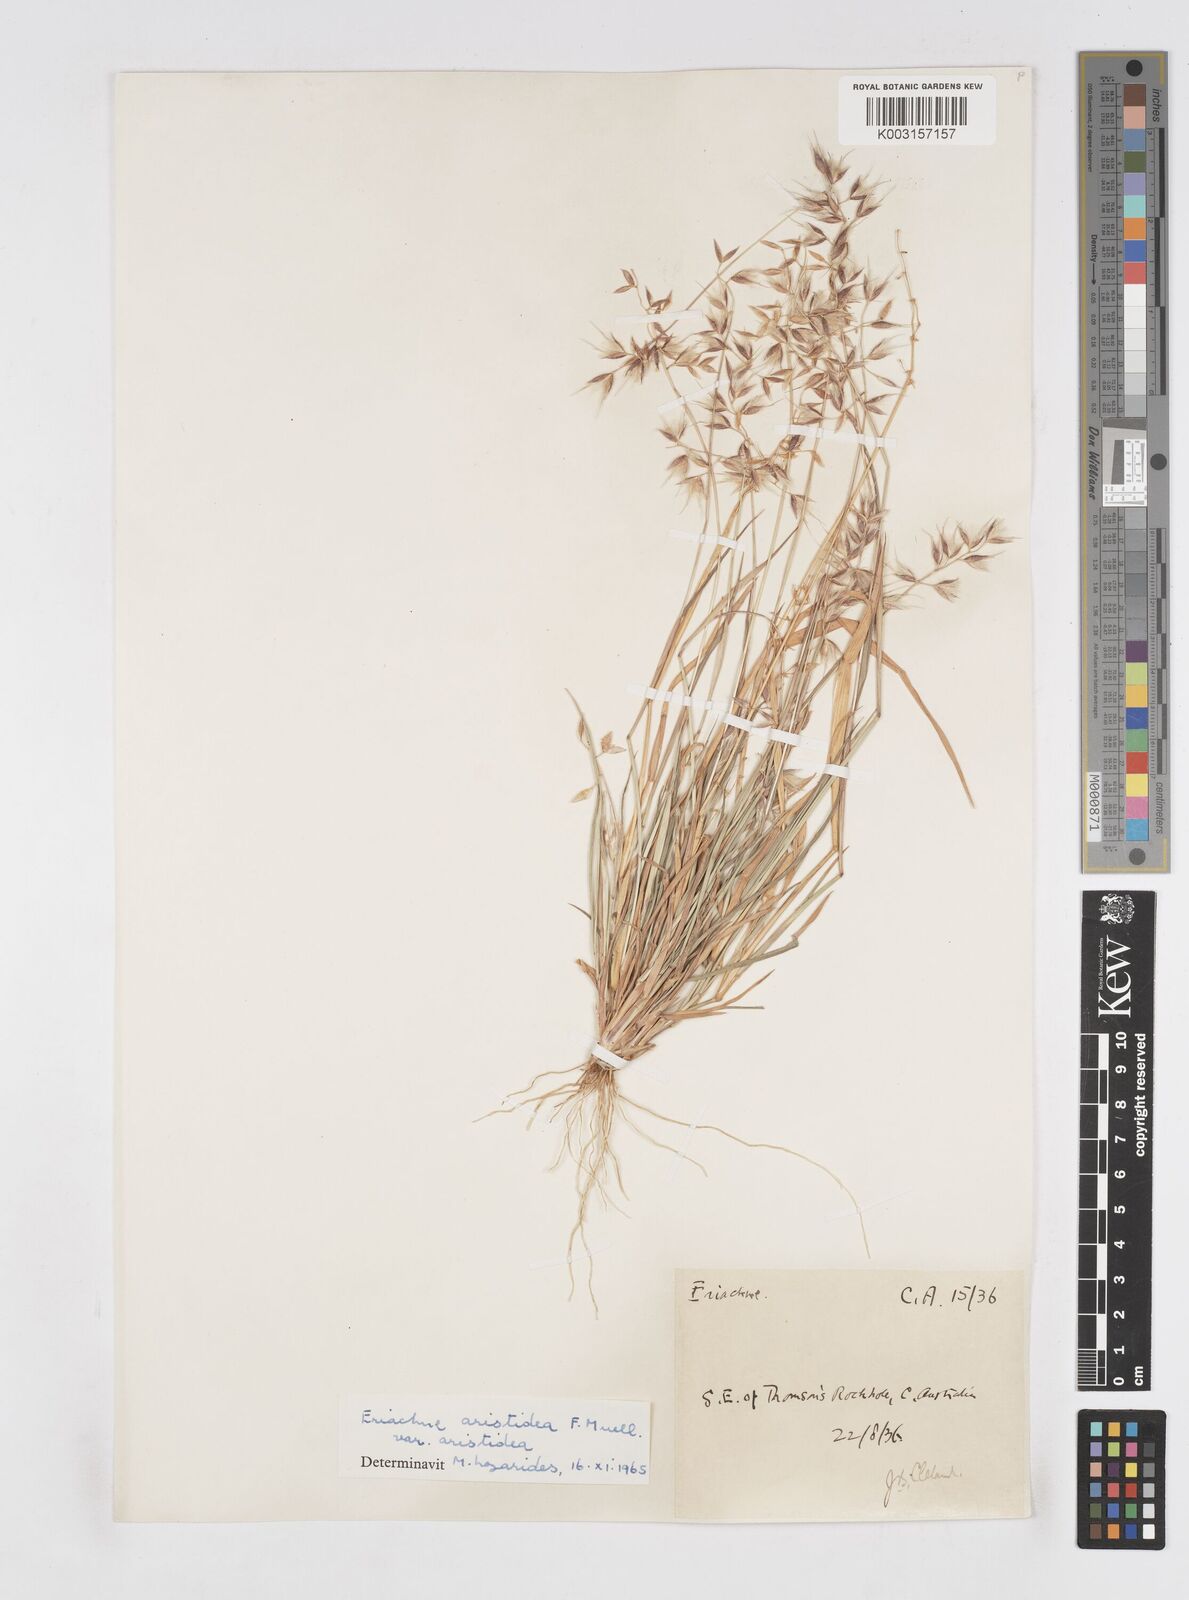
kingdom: Plantae
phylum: Tracheophyta
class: Liliopsida
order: Poales
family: Poaceae
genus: Eriachne
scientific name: Eriachne aristidea
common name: Three-awn wanderrie grass
